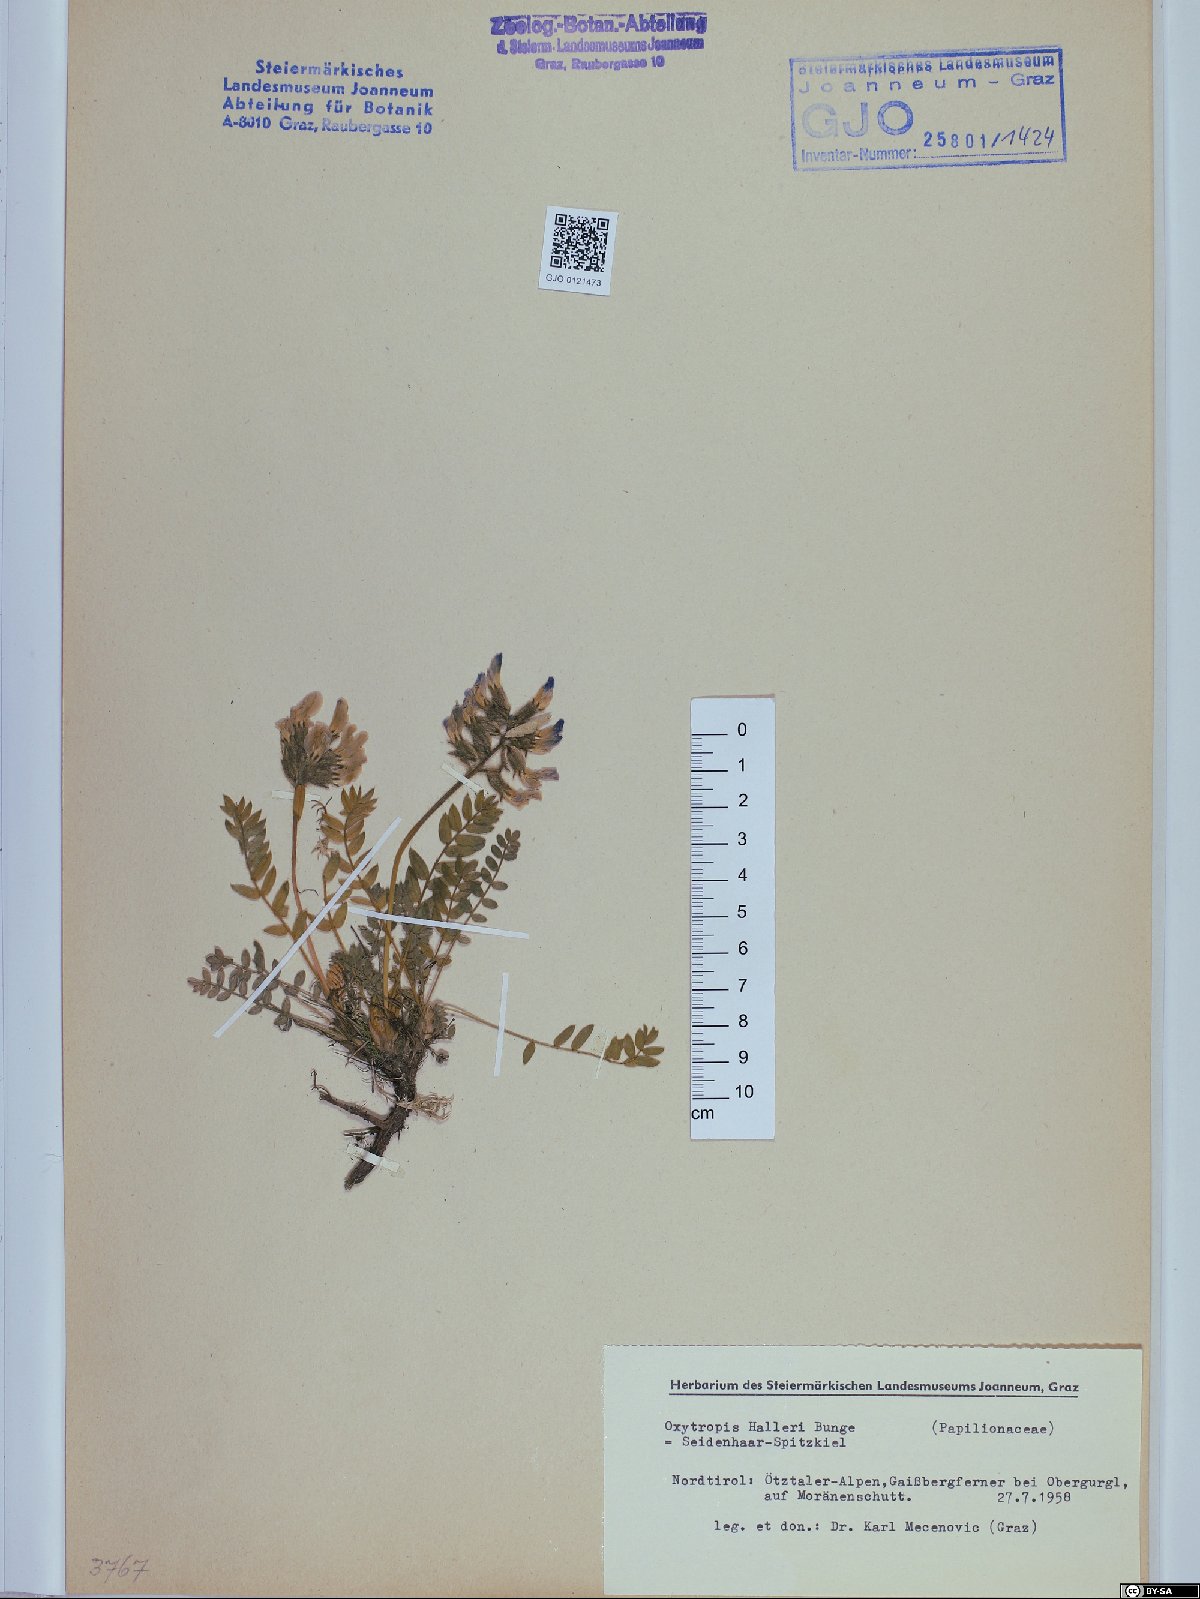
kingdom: Plantae
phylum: Tracheophyta
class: Magnoliopsida
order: Fabales
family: Fabaceae
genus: Oxytropis
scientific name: Oxytropis halleri
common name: Purple oxytropis
